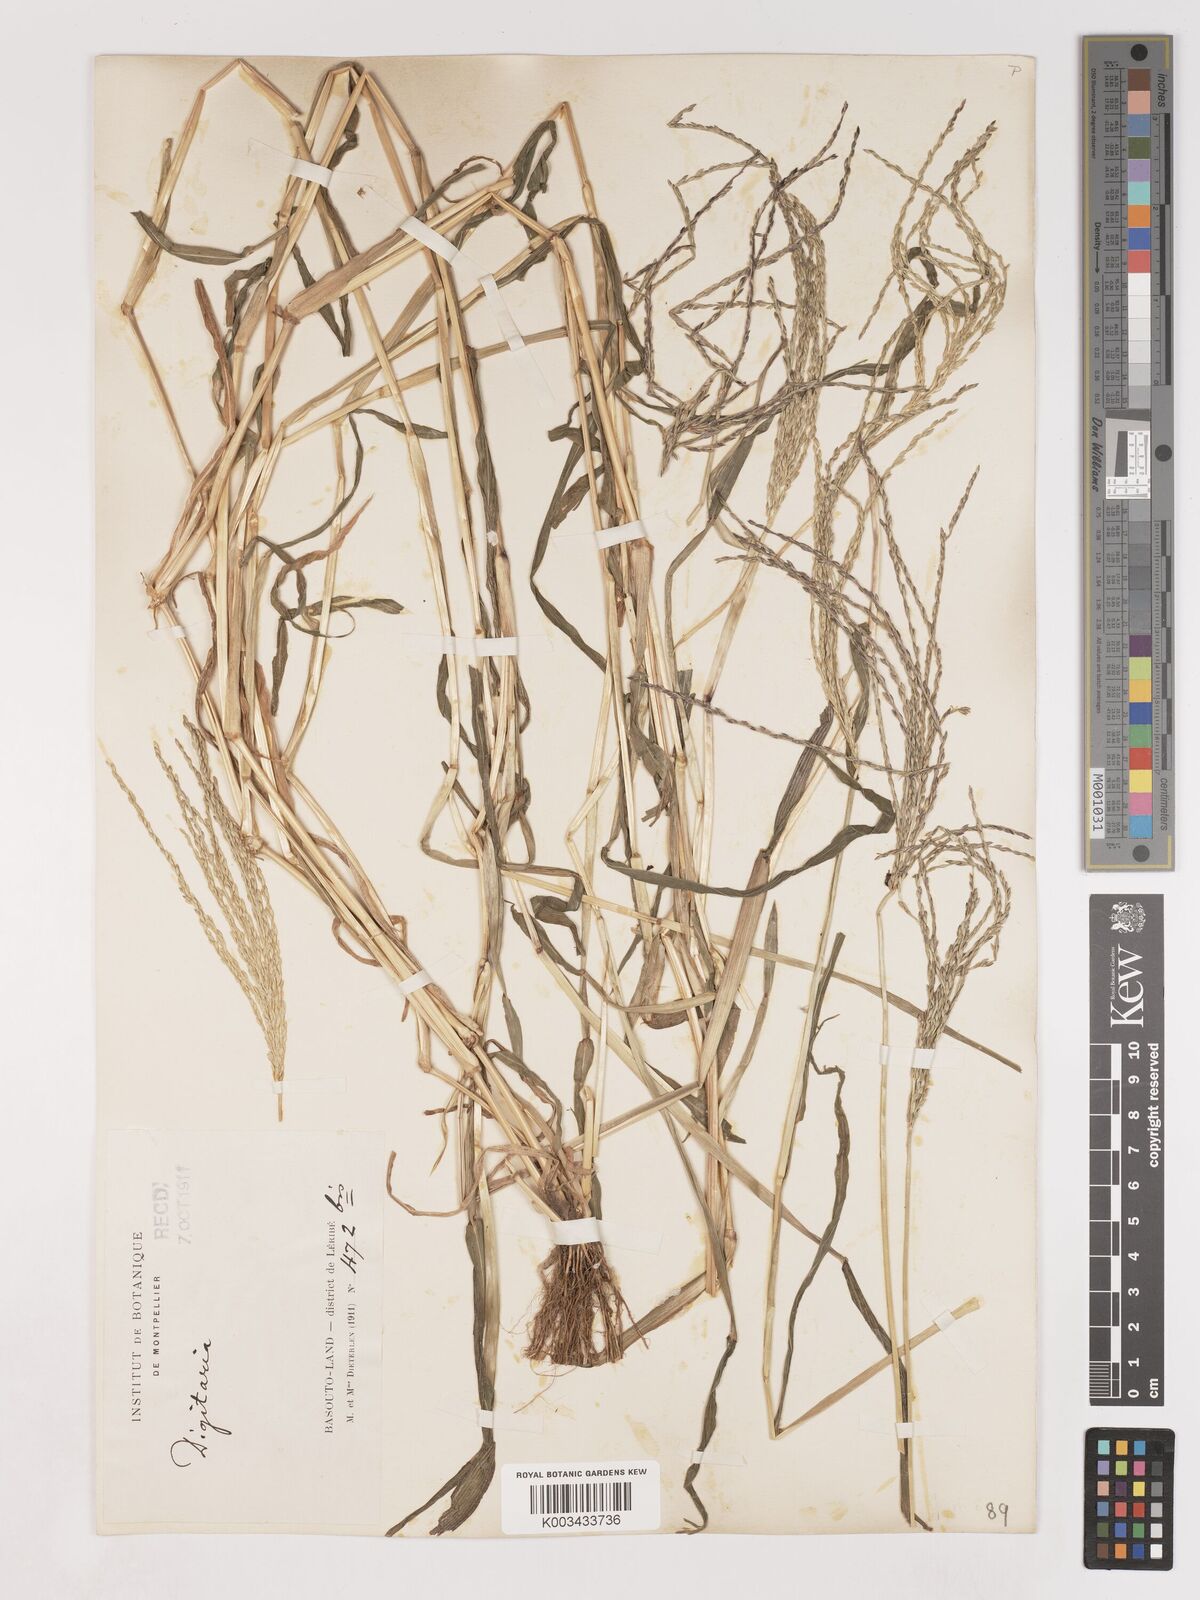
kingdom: Plantae
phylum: Tracheophyta
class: Liliopsida
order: Poales
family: Poaceae
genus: Digitaria
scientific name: Digitaria sanguinalis
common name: Hairy crabgrass
